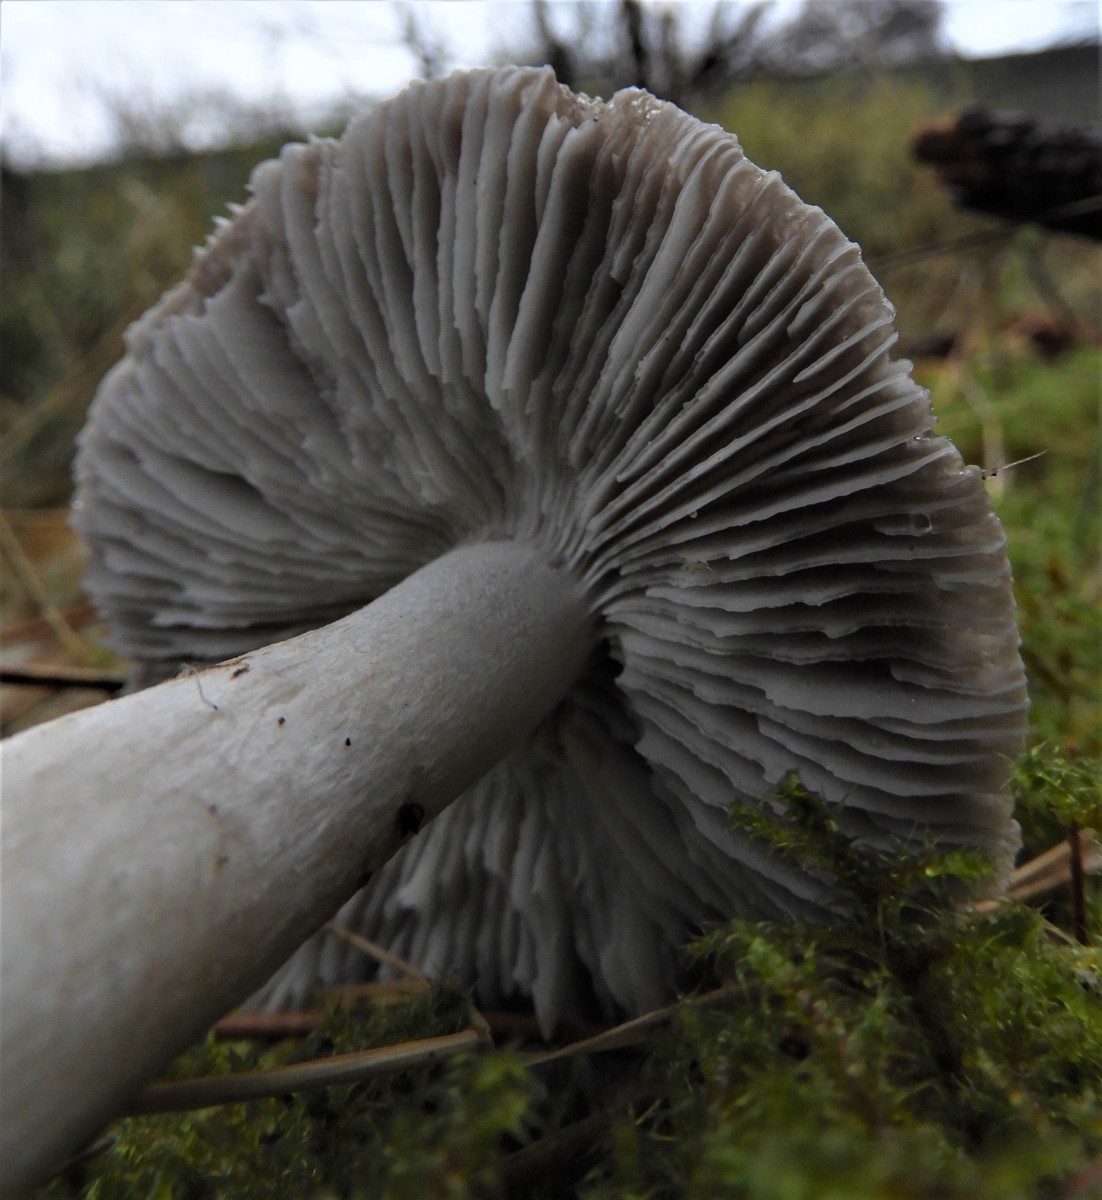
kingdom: Fungi
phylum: Basidiomycota
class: Agaricomycetes
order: Agaricales
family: Tricholomataceae
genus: Tricholoma
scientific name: Tricholoma terreum
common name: jordfarvet ridderhat
